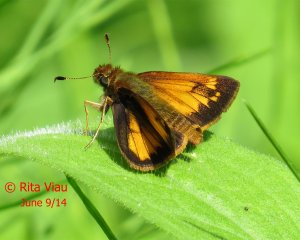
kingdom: Animalia
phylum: Arthropoda
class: Insecta
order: Lepidoptera
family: Hesperiidae
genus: Lon
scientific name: Lon hobomok
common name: Hobomok Skipper
